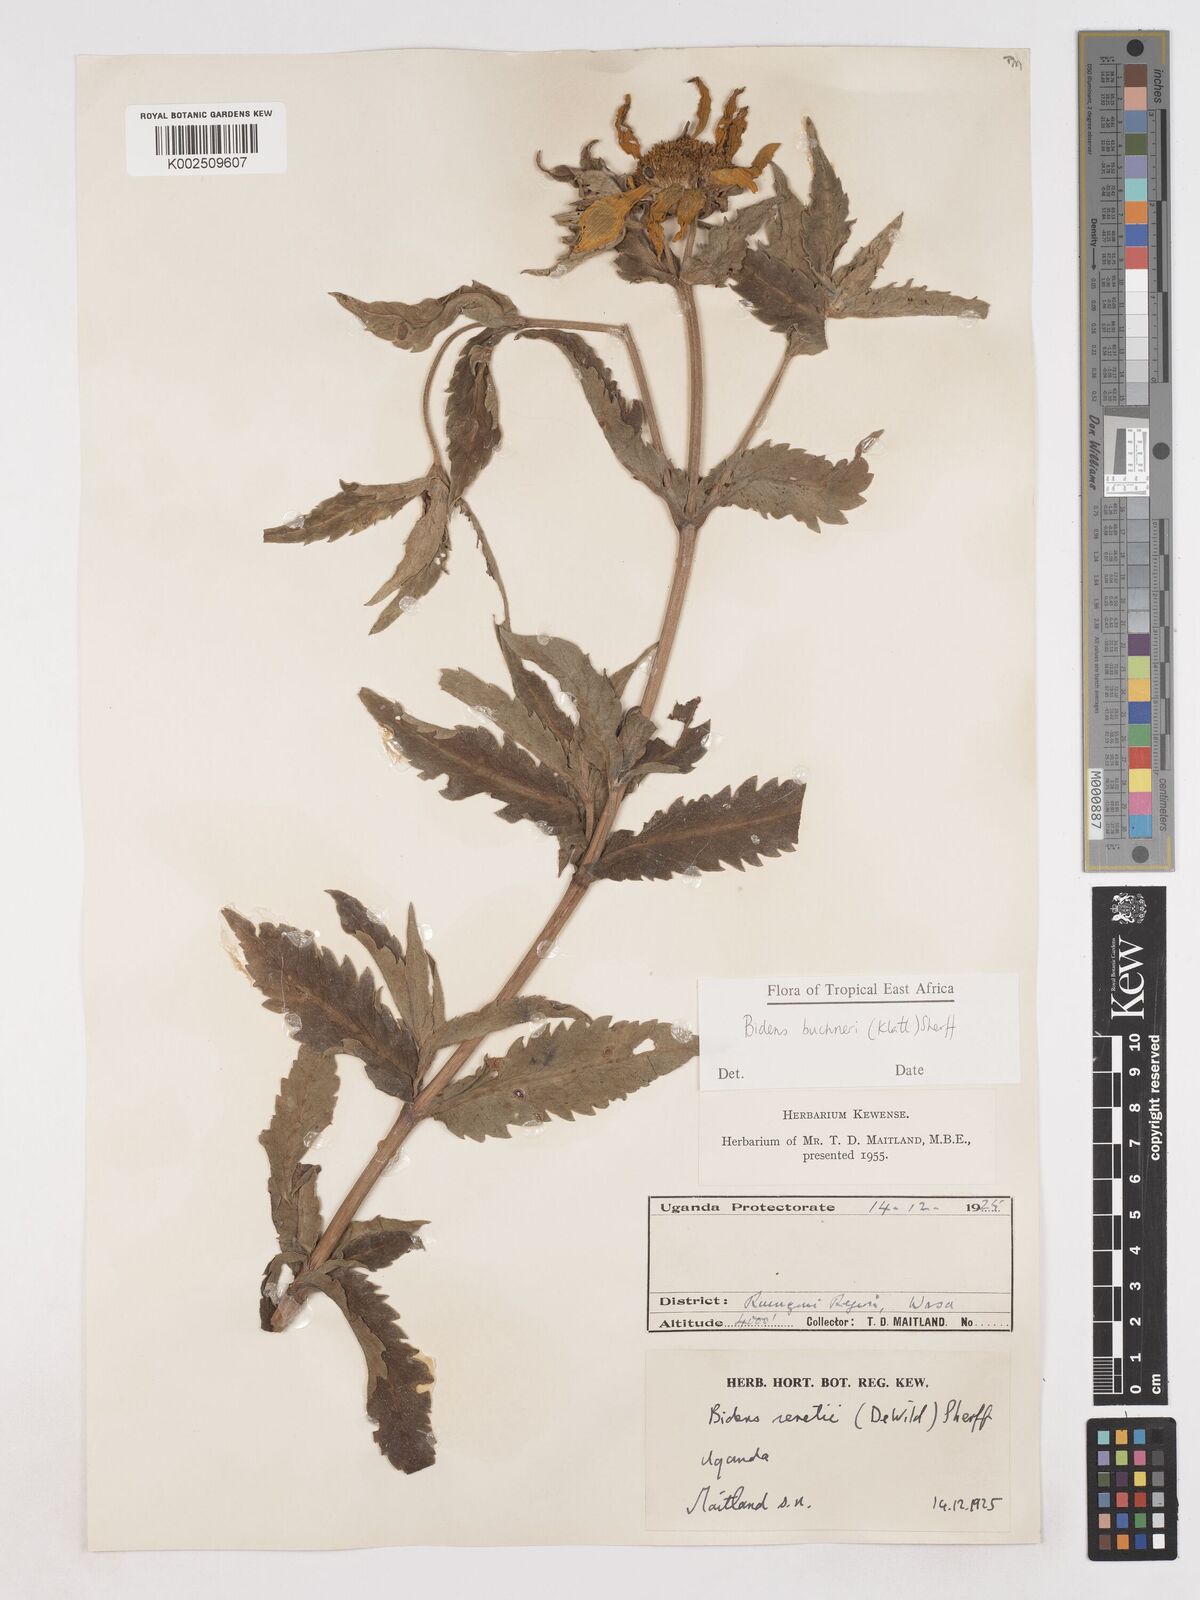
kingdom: Plantae
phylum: Tracheophyta
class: Magnoliopsida
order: Asterales
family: Asteraceae
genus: Bidens
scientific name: Bidens buchneri
